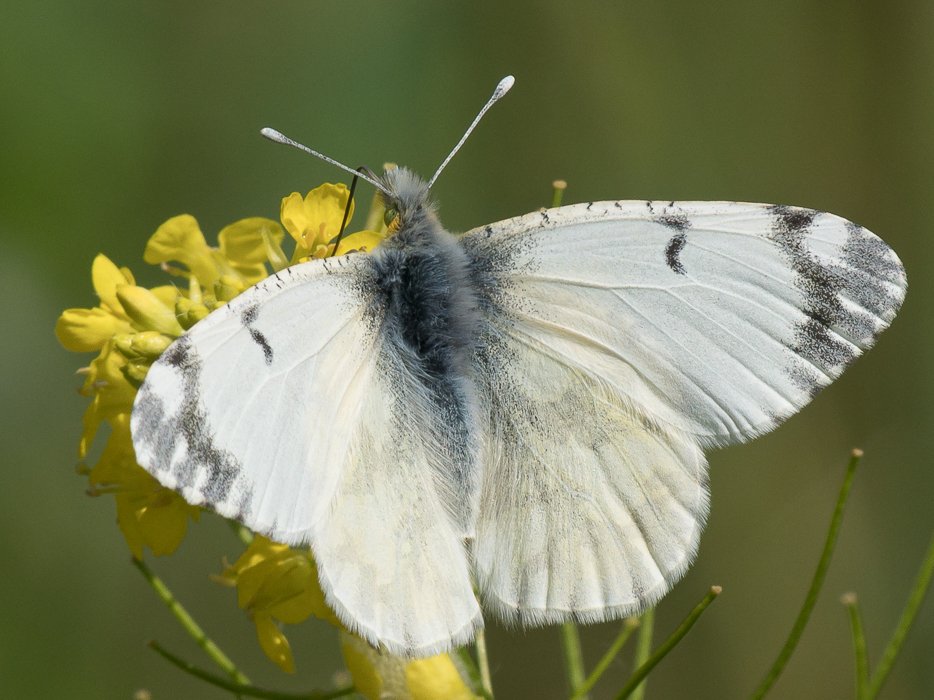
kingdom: Animalia
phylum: Arthropoda
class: Insecta
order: Lepidoptera
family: Pieridae
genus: Euchloe
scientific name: Euchloe ausonides
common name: Large Marble
